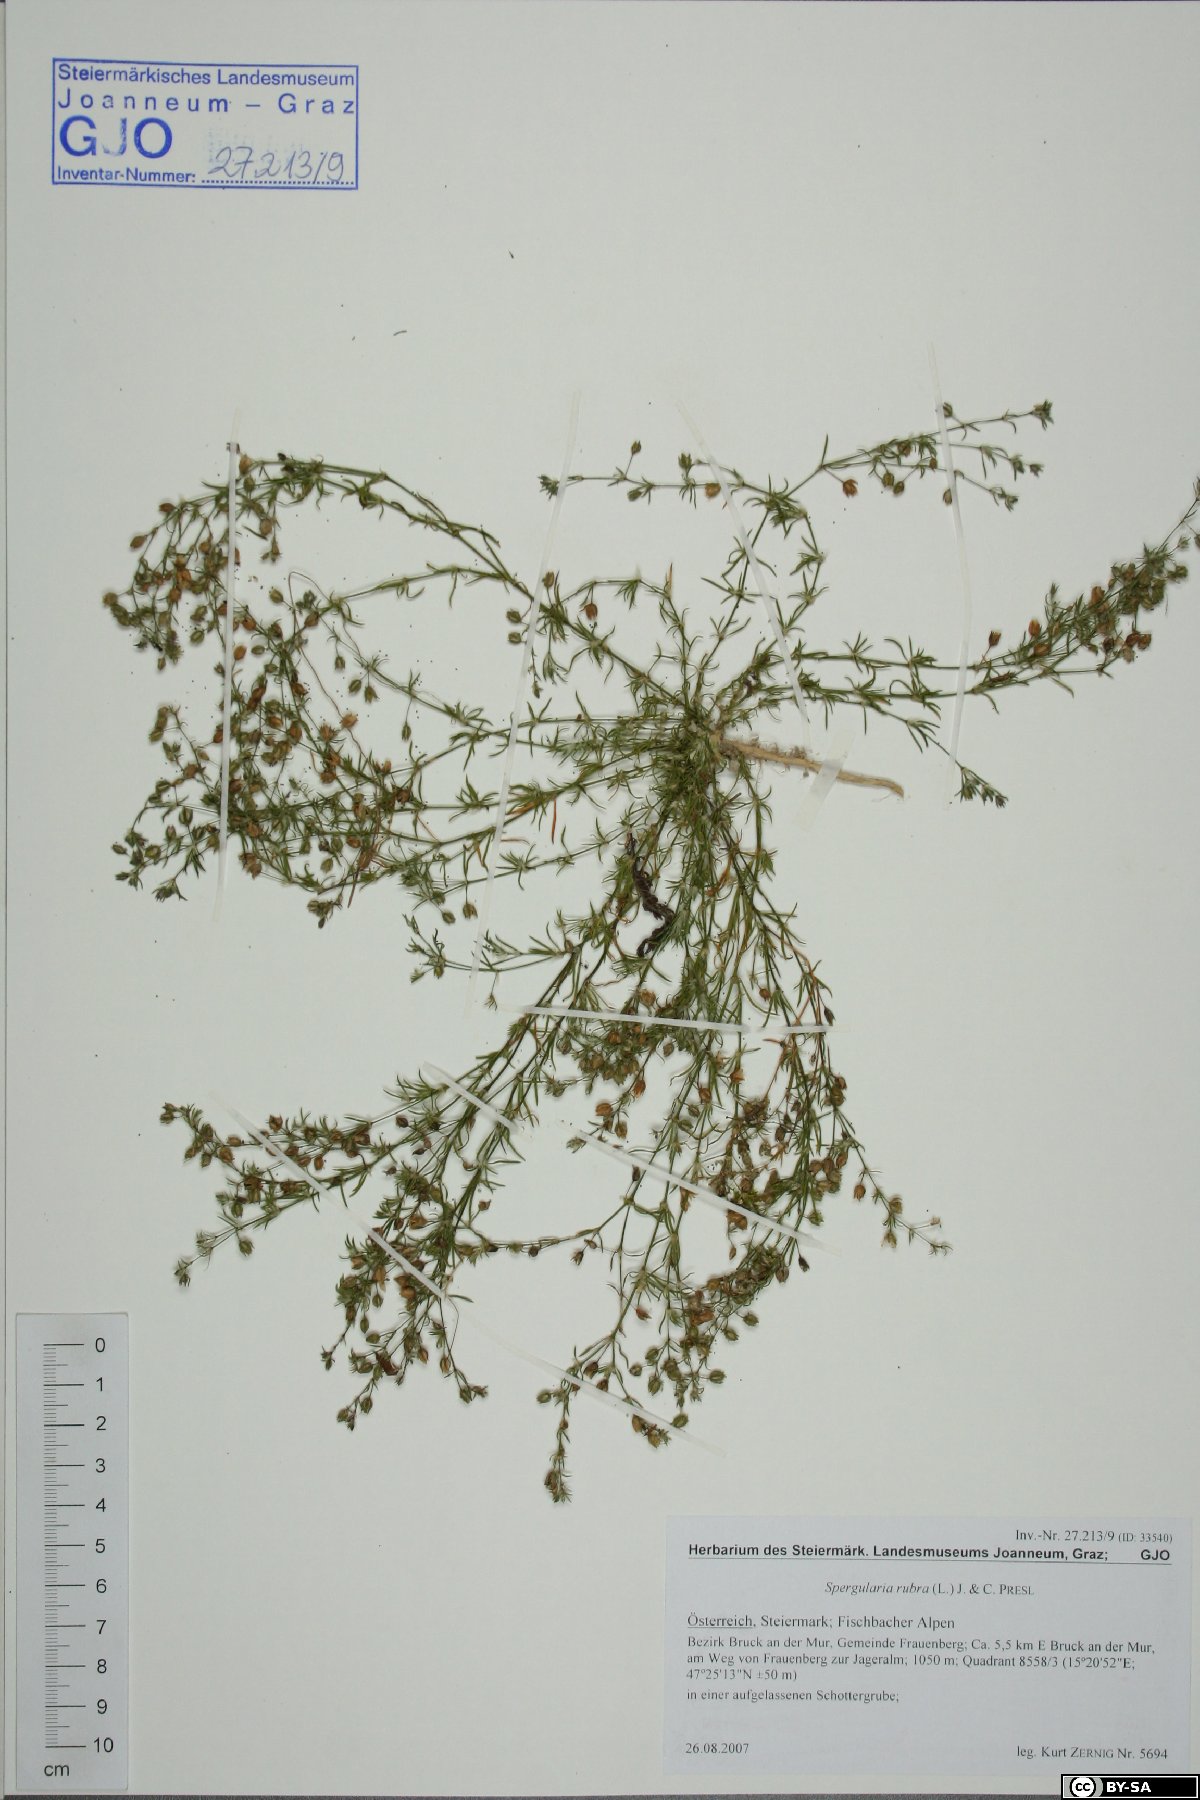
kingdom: Plantae
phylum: Tracheophyta
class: Magnoliopsida
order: Caryophyllales
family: Caryophyllaceae
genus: Spergularia
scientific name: Spergularia rubra
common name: Red sand-spurrey
